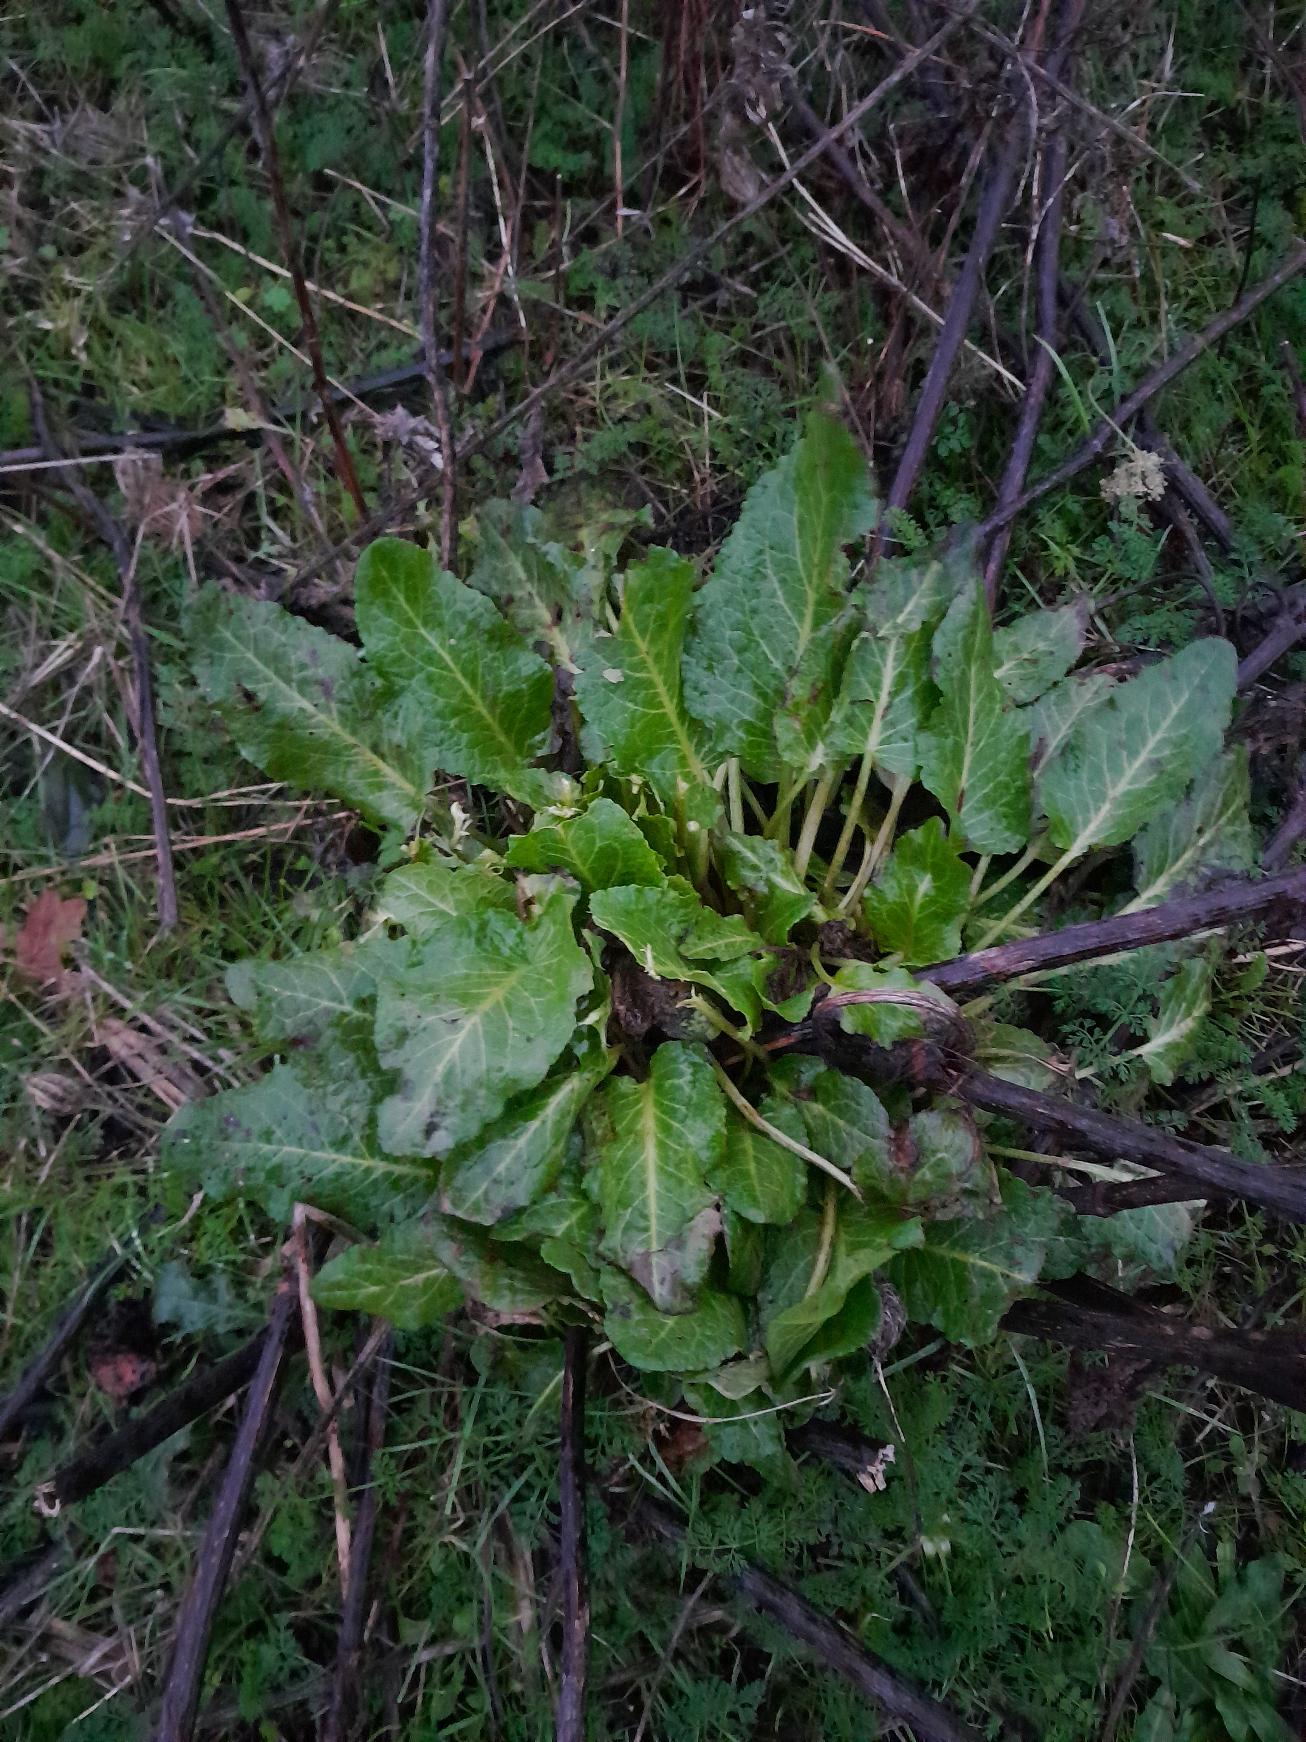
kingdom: Plantae
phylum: Tracheophyta
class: Magnoliopsida
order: Caryophyllales
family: Polygonaceae
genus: Rumex
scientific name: Rumex obtusifolius
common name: Butbladet skræppe
